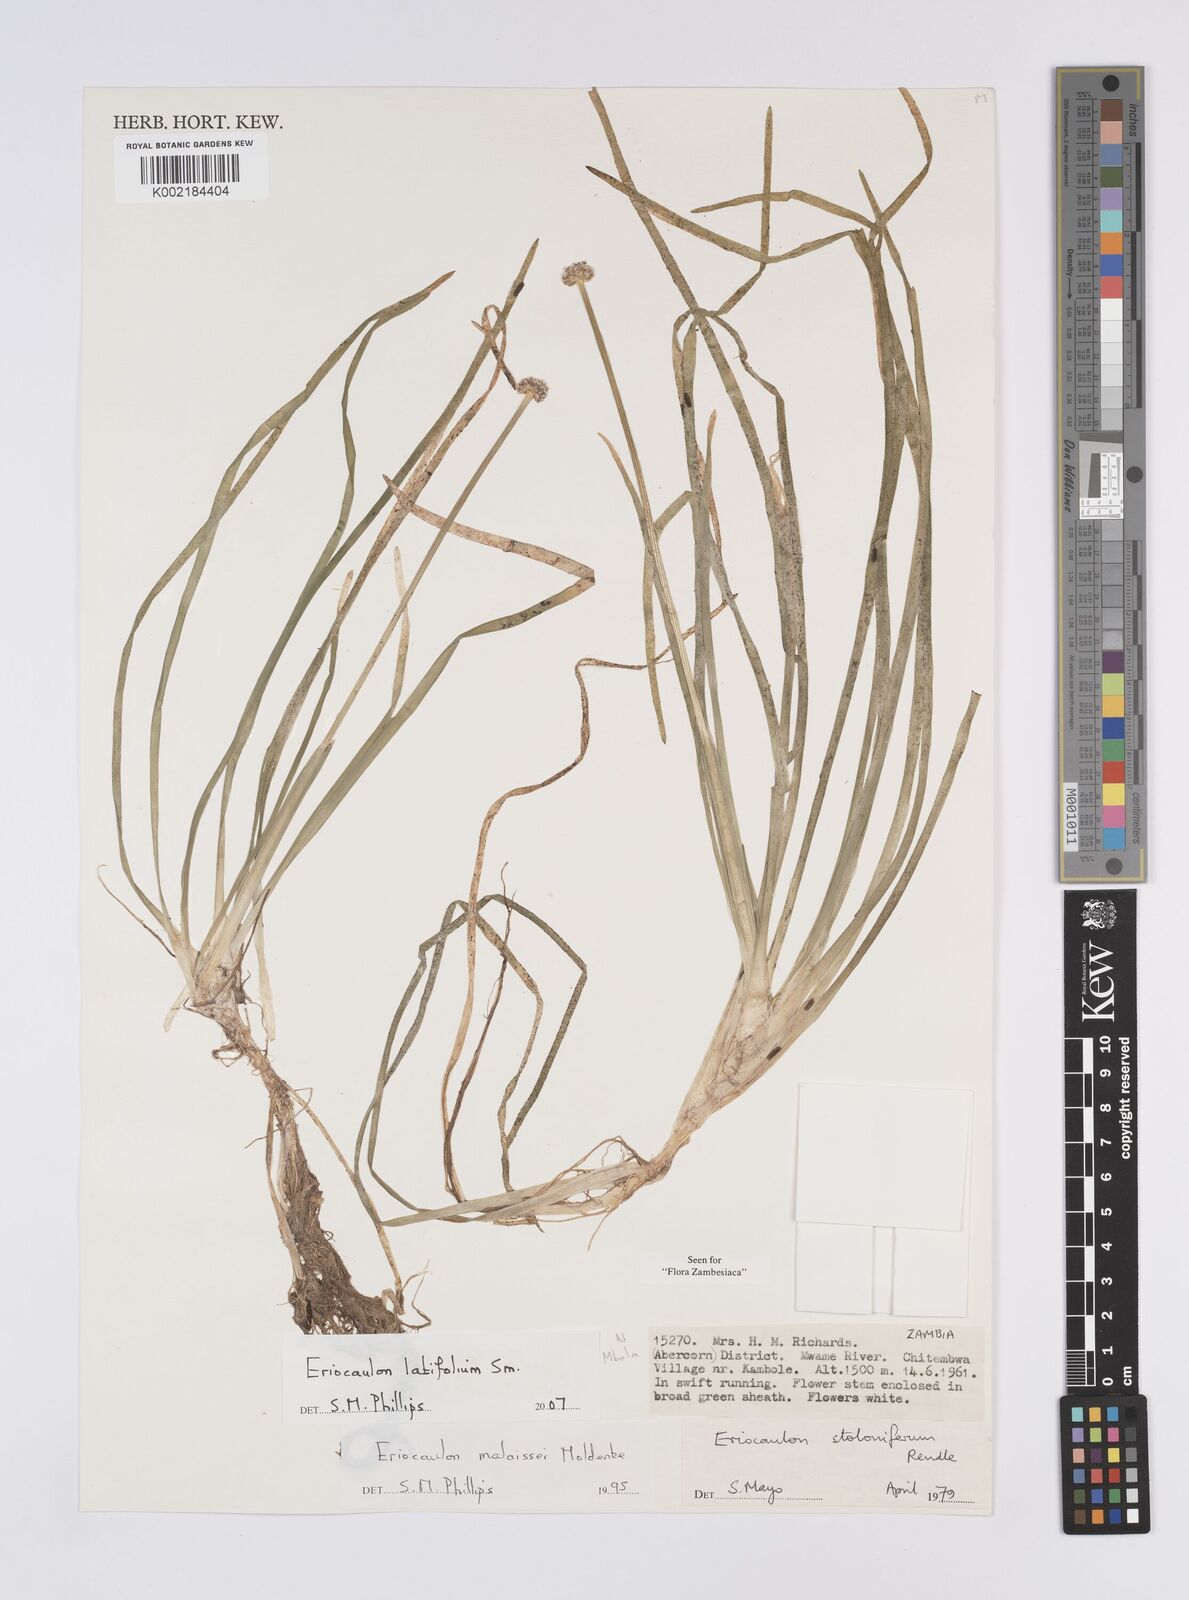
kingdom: Plantae
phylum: Tracheophyta
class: Liliopsida
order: Poales
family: Eriocaulaceae
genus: Eriocaulon
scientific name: Eriocaulon latifolium
